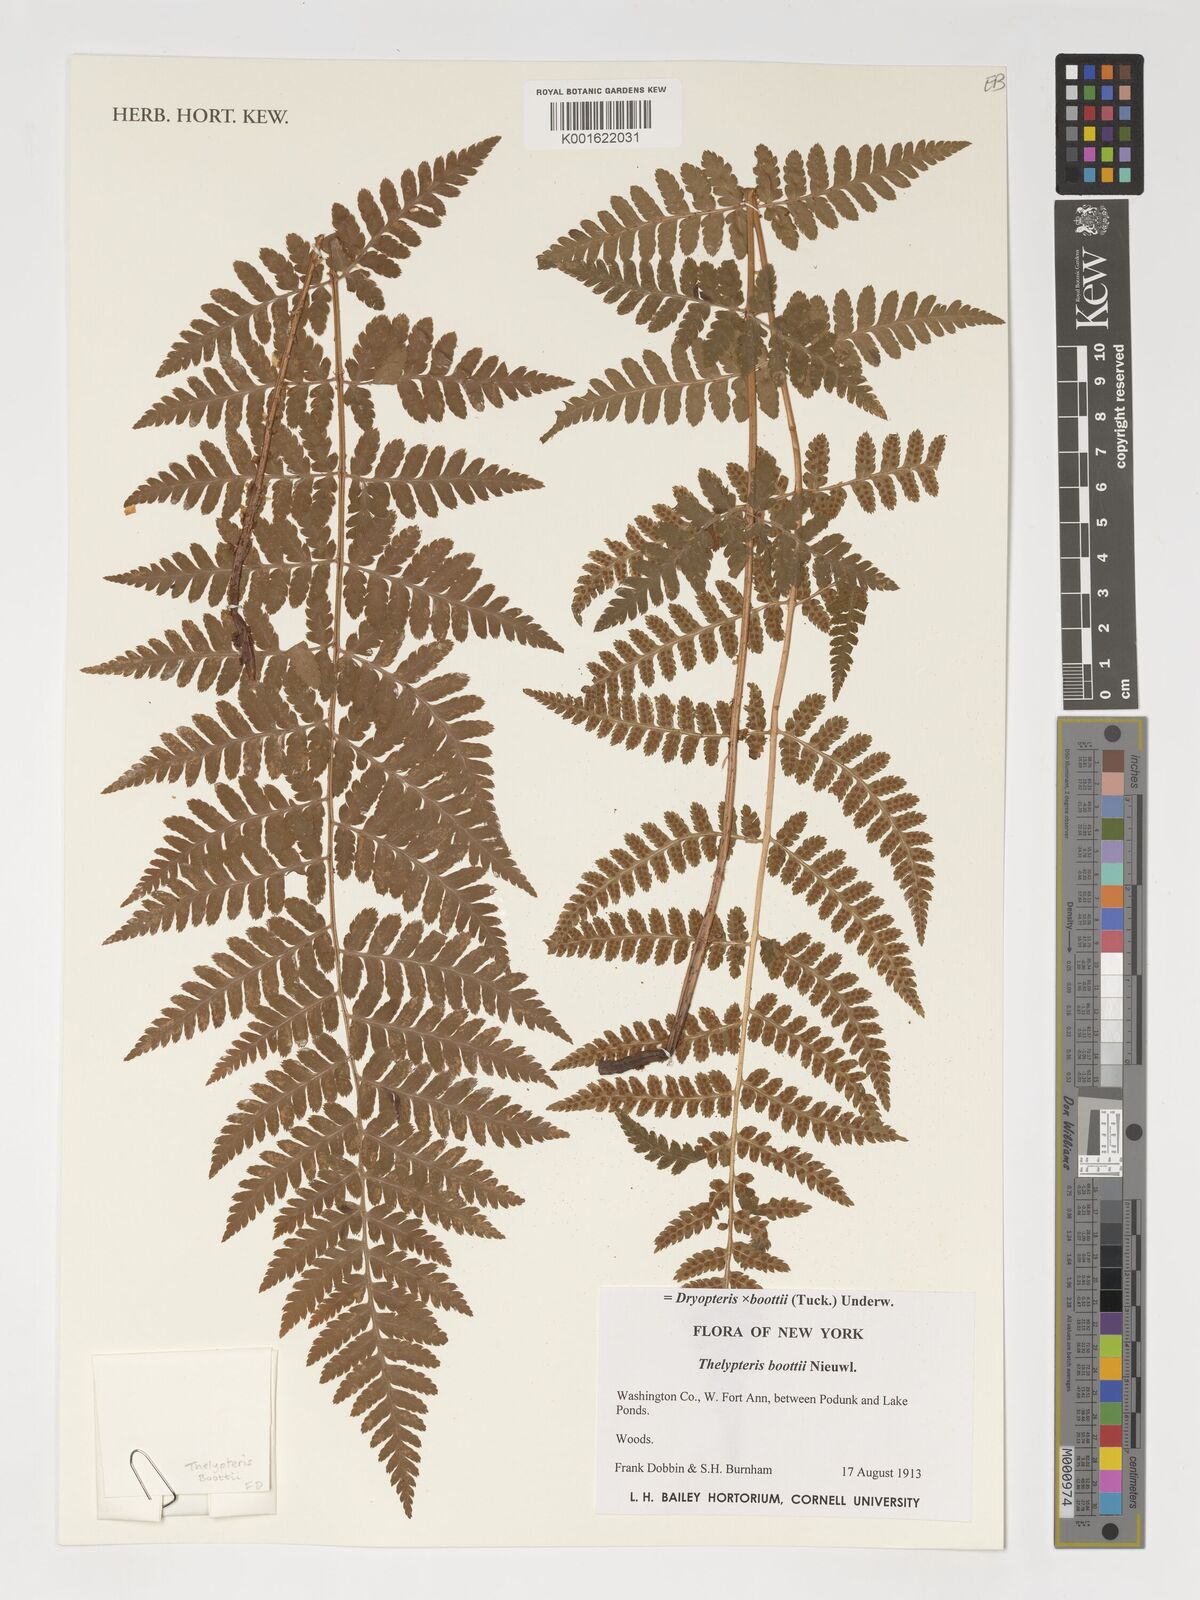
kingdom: Plantae
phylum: Tracheophyta
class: Polypodiopsida
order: Polypodiales
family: Dryopteridaceae
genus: Dryopteris
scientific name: Dryopteris boottii
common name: Boott's fern
